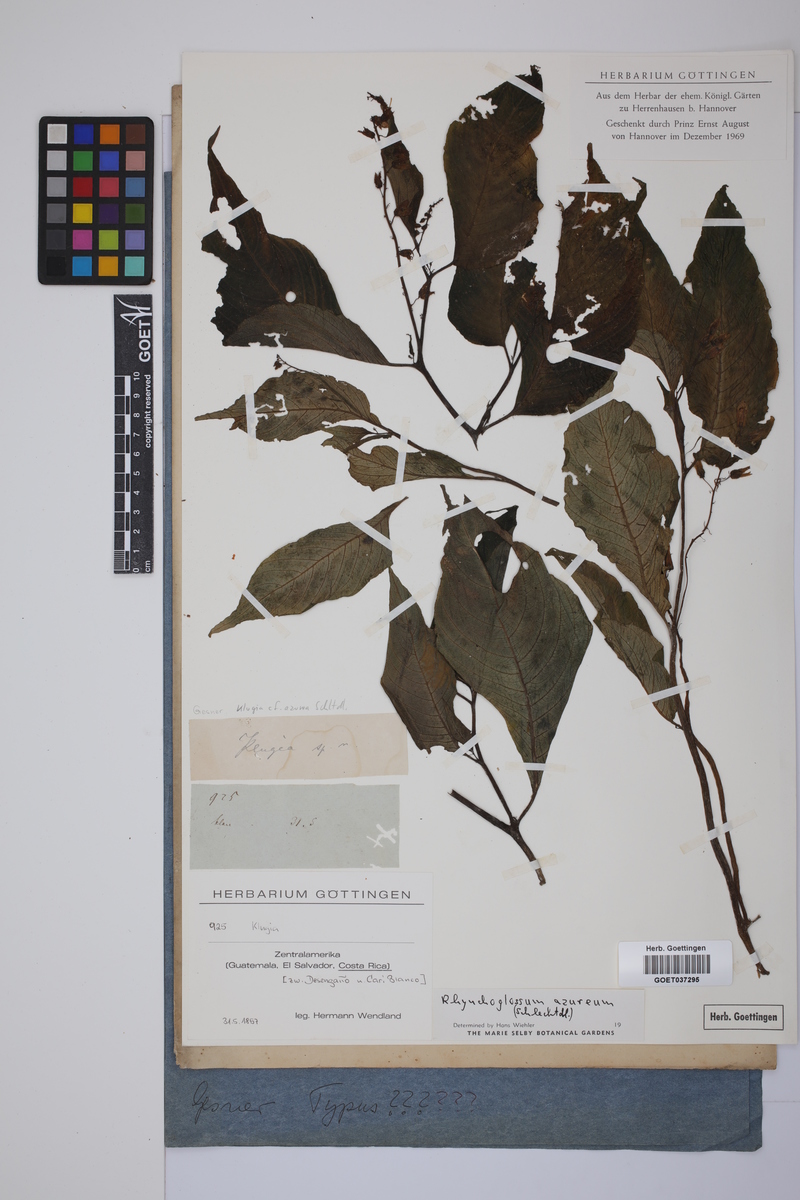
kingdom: Plantae
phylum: Tracheophyta
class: Magnoliopsida
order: Lamiales
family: Gesneriaceae
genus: Rhynchoglossum
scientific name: Rhynchoglossum azureum
